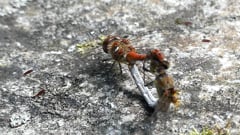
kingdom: Animalia
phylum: Arthropoda
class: Insecta
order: Odonata
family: Libellulidae
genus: Sympetrum
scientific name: Sympetrum striolatum
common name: Common darter
